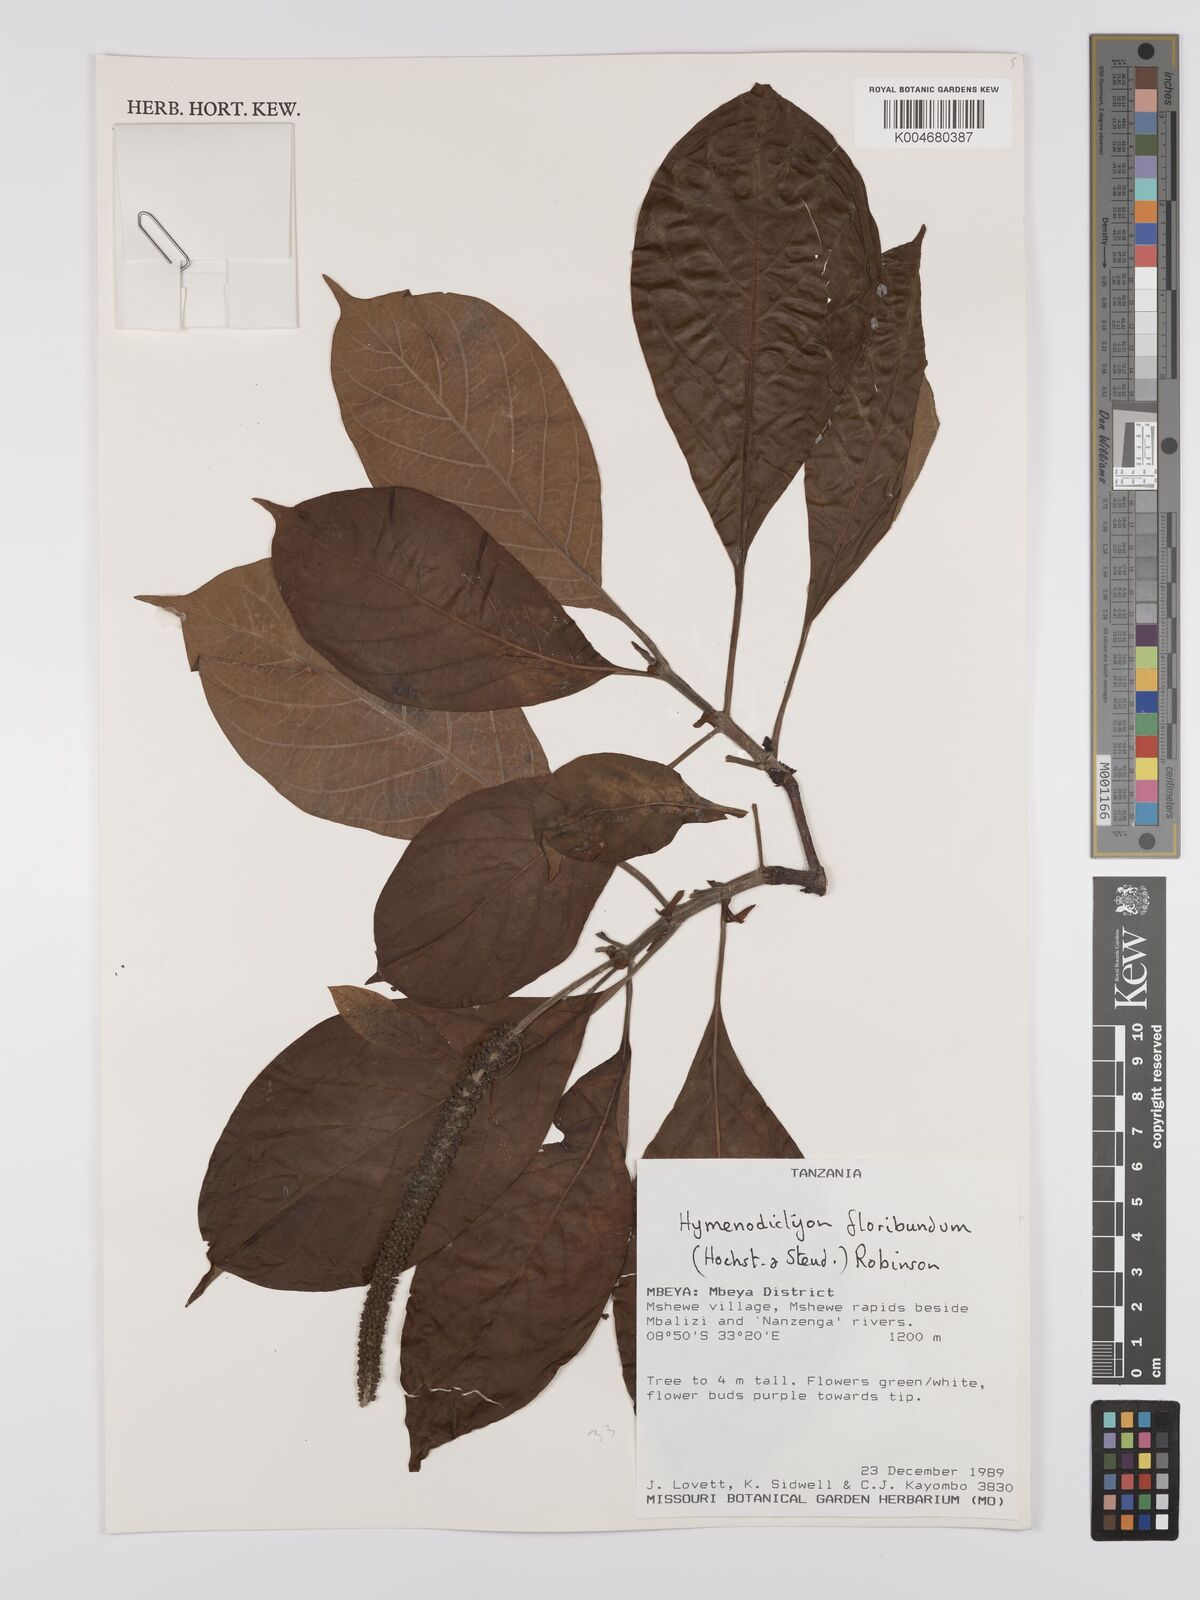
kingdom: Plantae
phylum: Tracheophyta
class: Magnoliopsida
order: Gentianales
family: Rubiaceae
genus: Hymenodictyon
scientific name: Hymenodictyon floribundum
